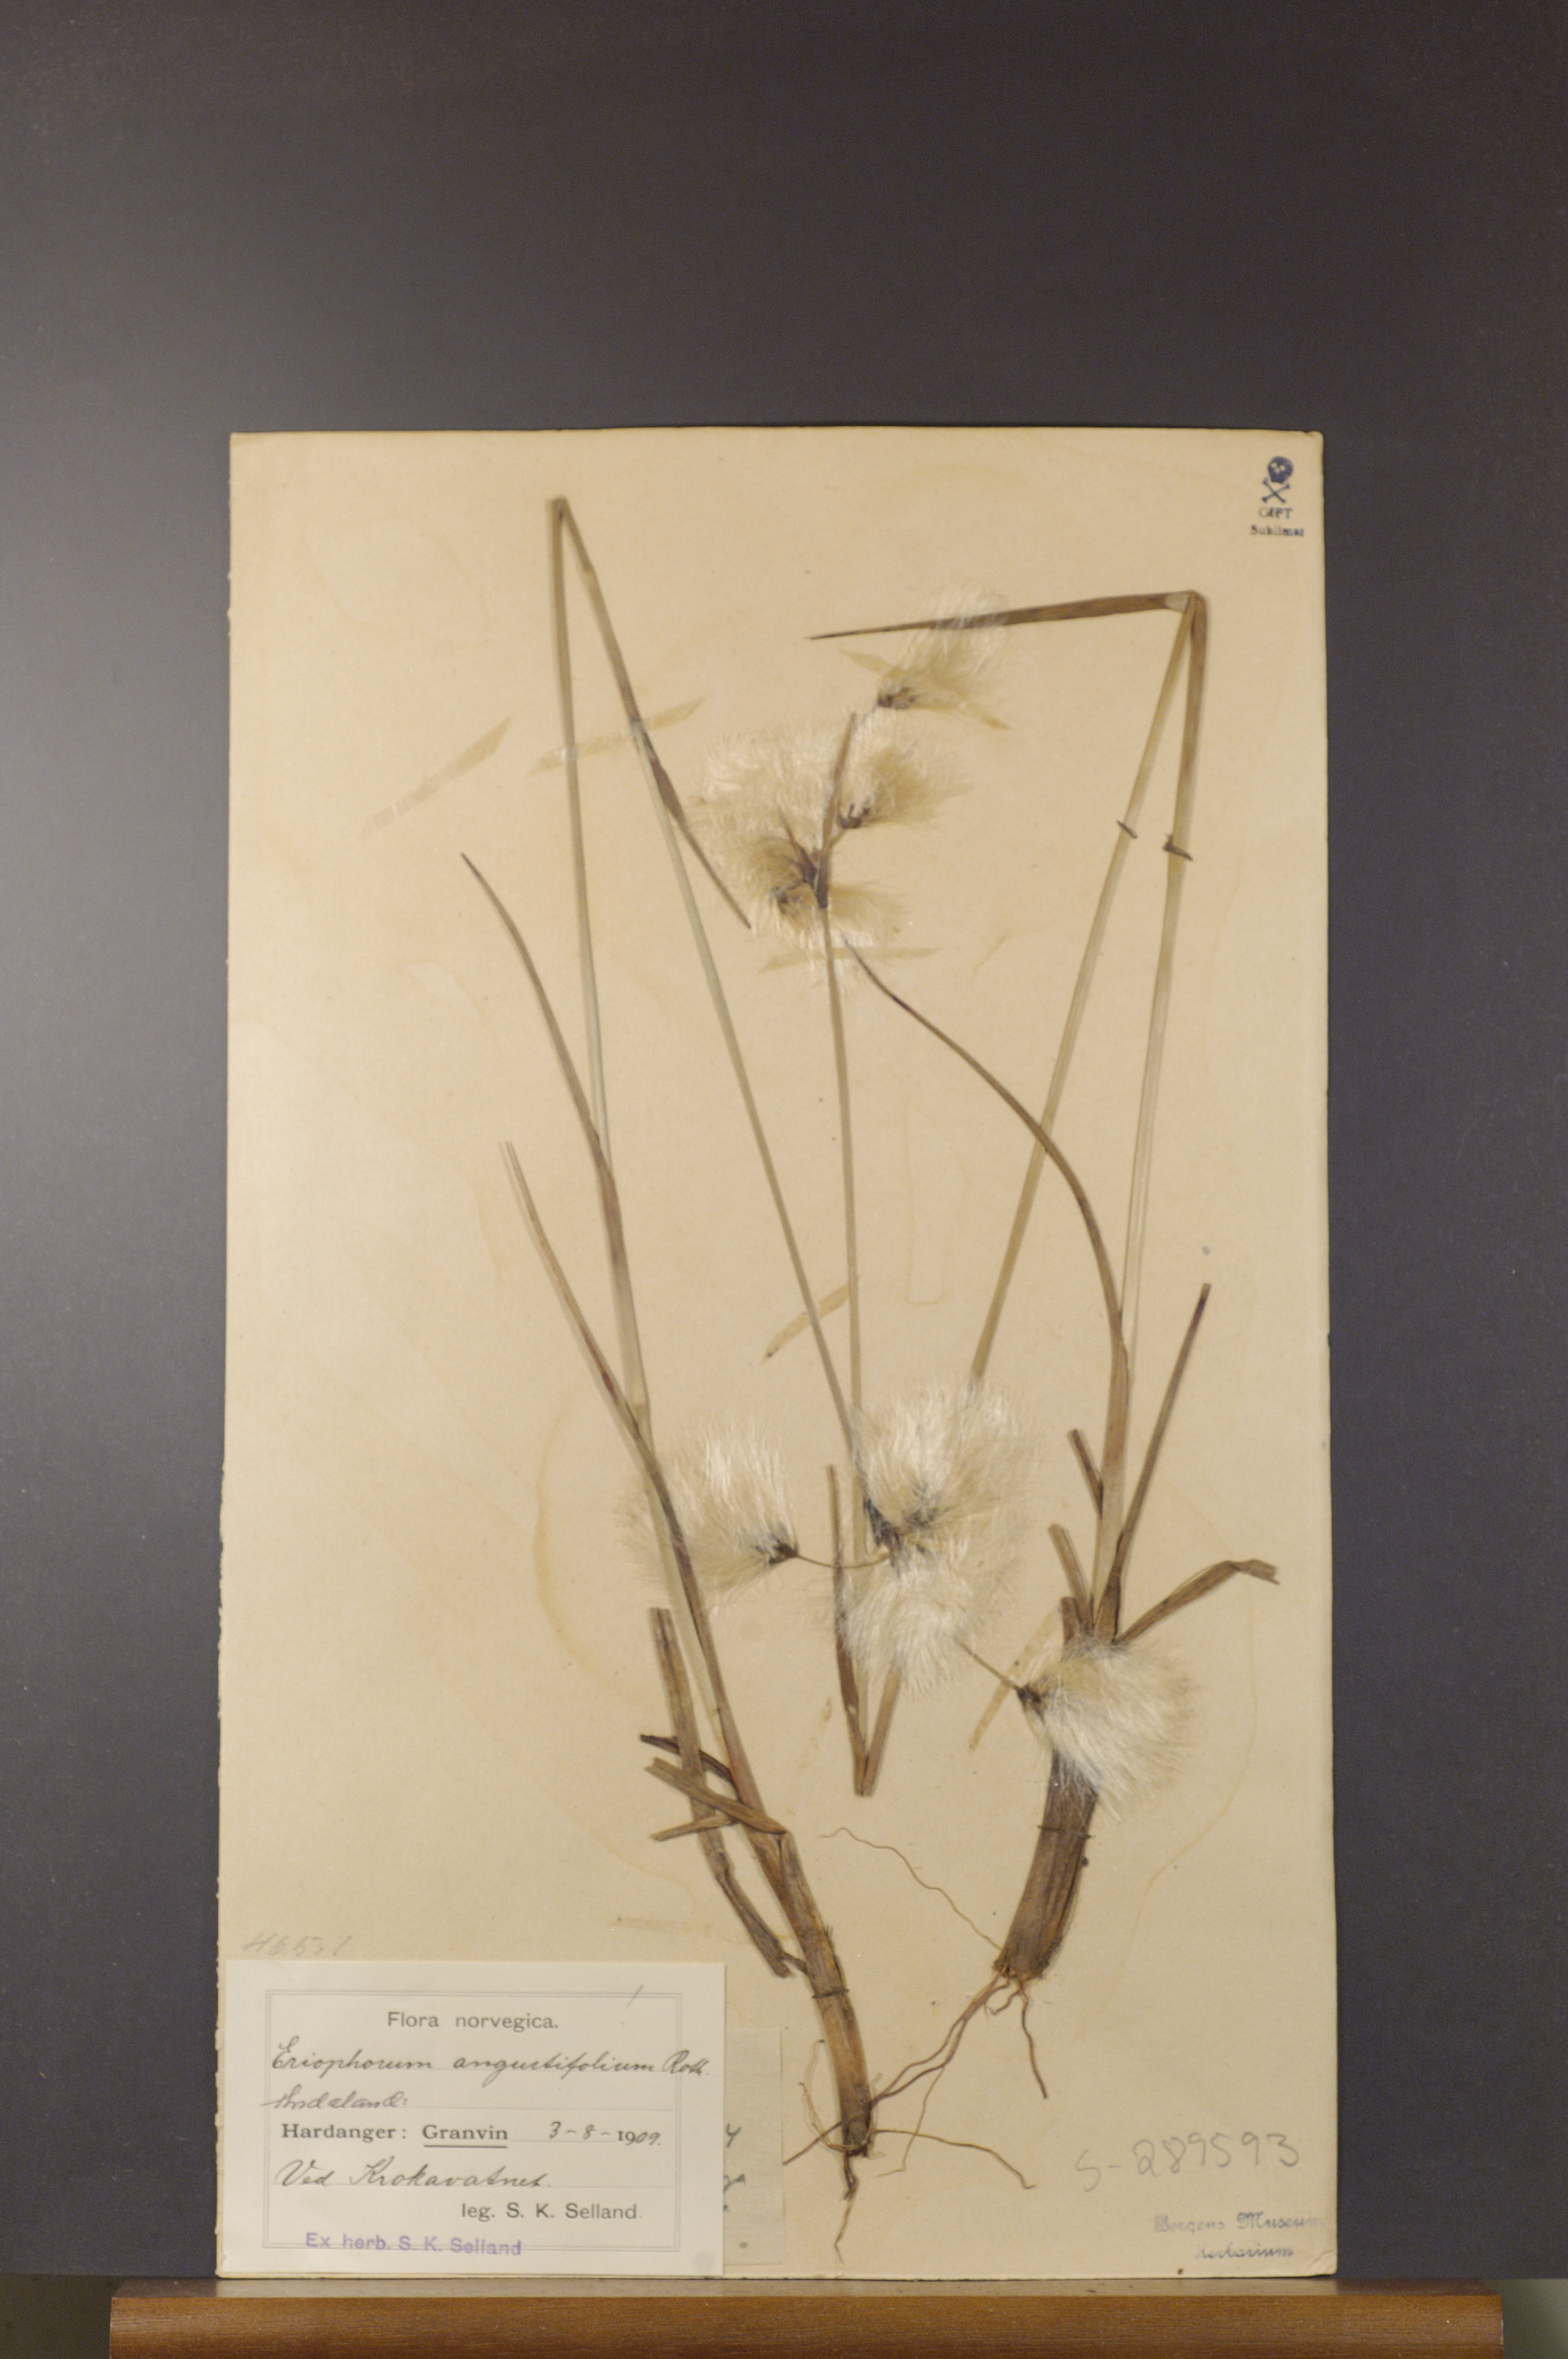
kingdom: Plantae
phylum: Tracheophyta
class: Liliopsida
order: Poales
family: Cyperaceae
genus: Eriophorum
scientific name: Eriophorum angustifolium
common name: Common cottongrass
